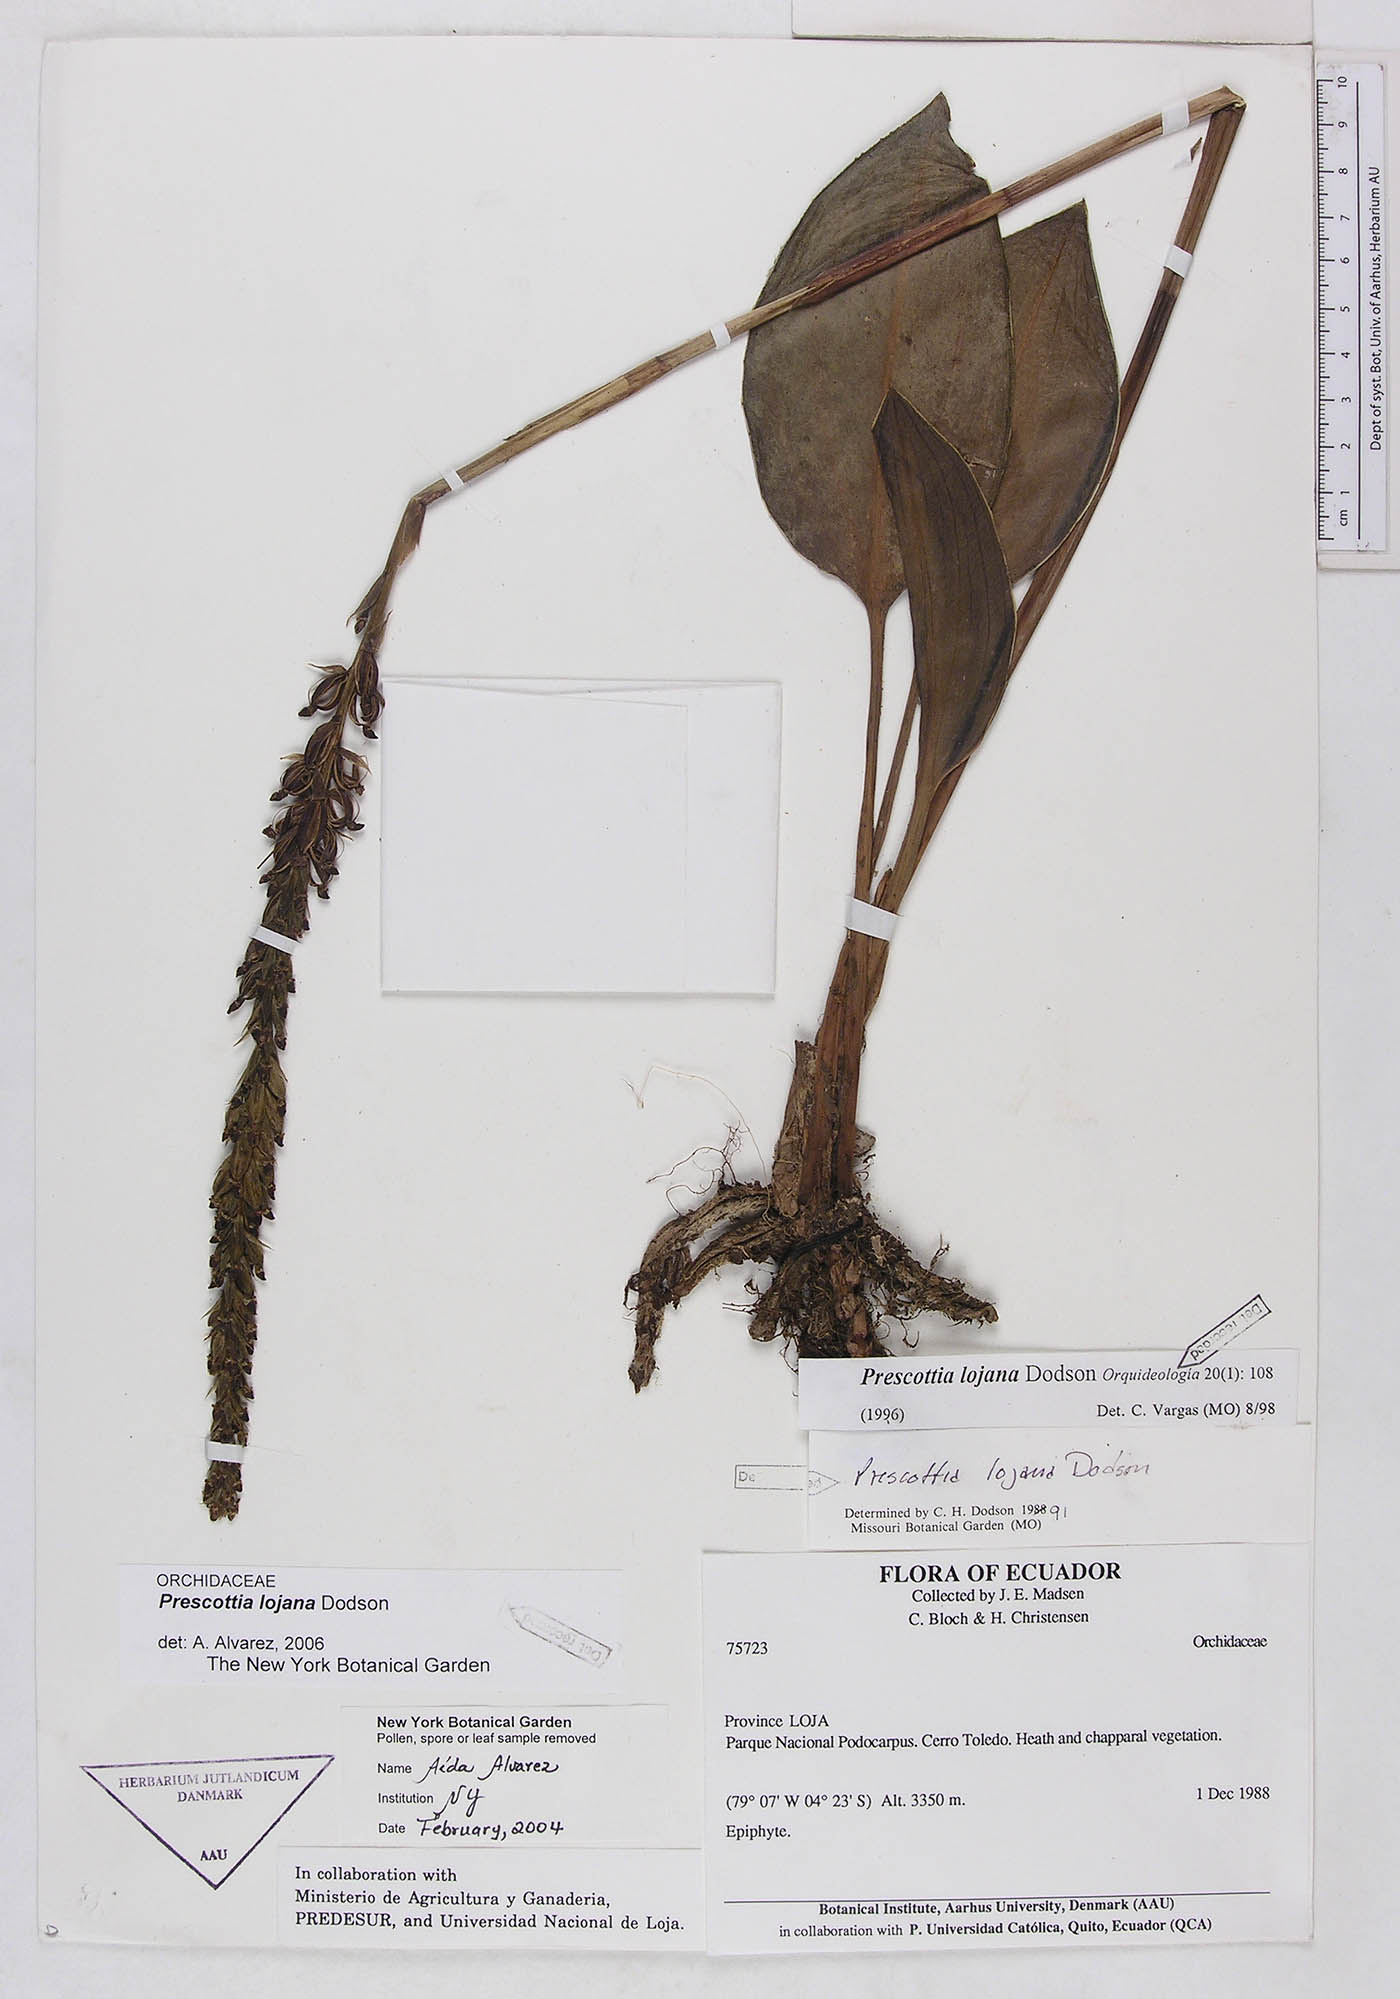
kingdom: Plantae
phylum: Tracheophyta
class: Liliopsida
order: Asparagales
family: Orchidaceae
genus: Prescottia
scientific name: Prescottia lojana
